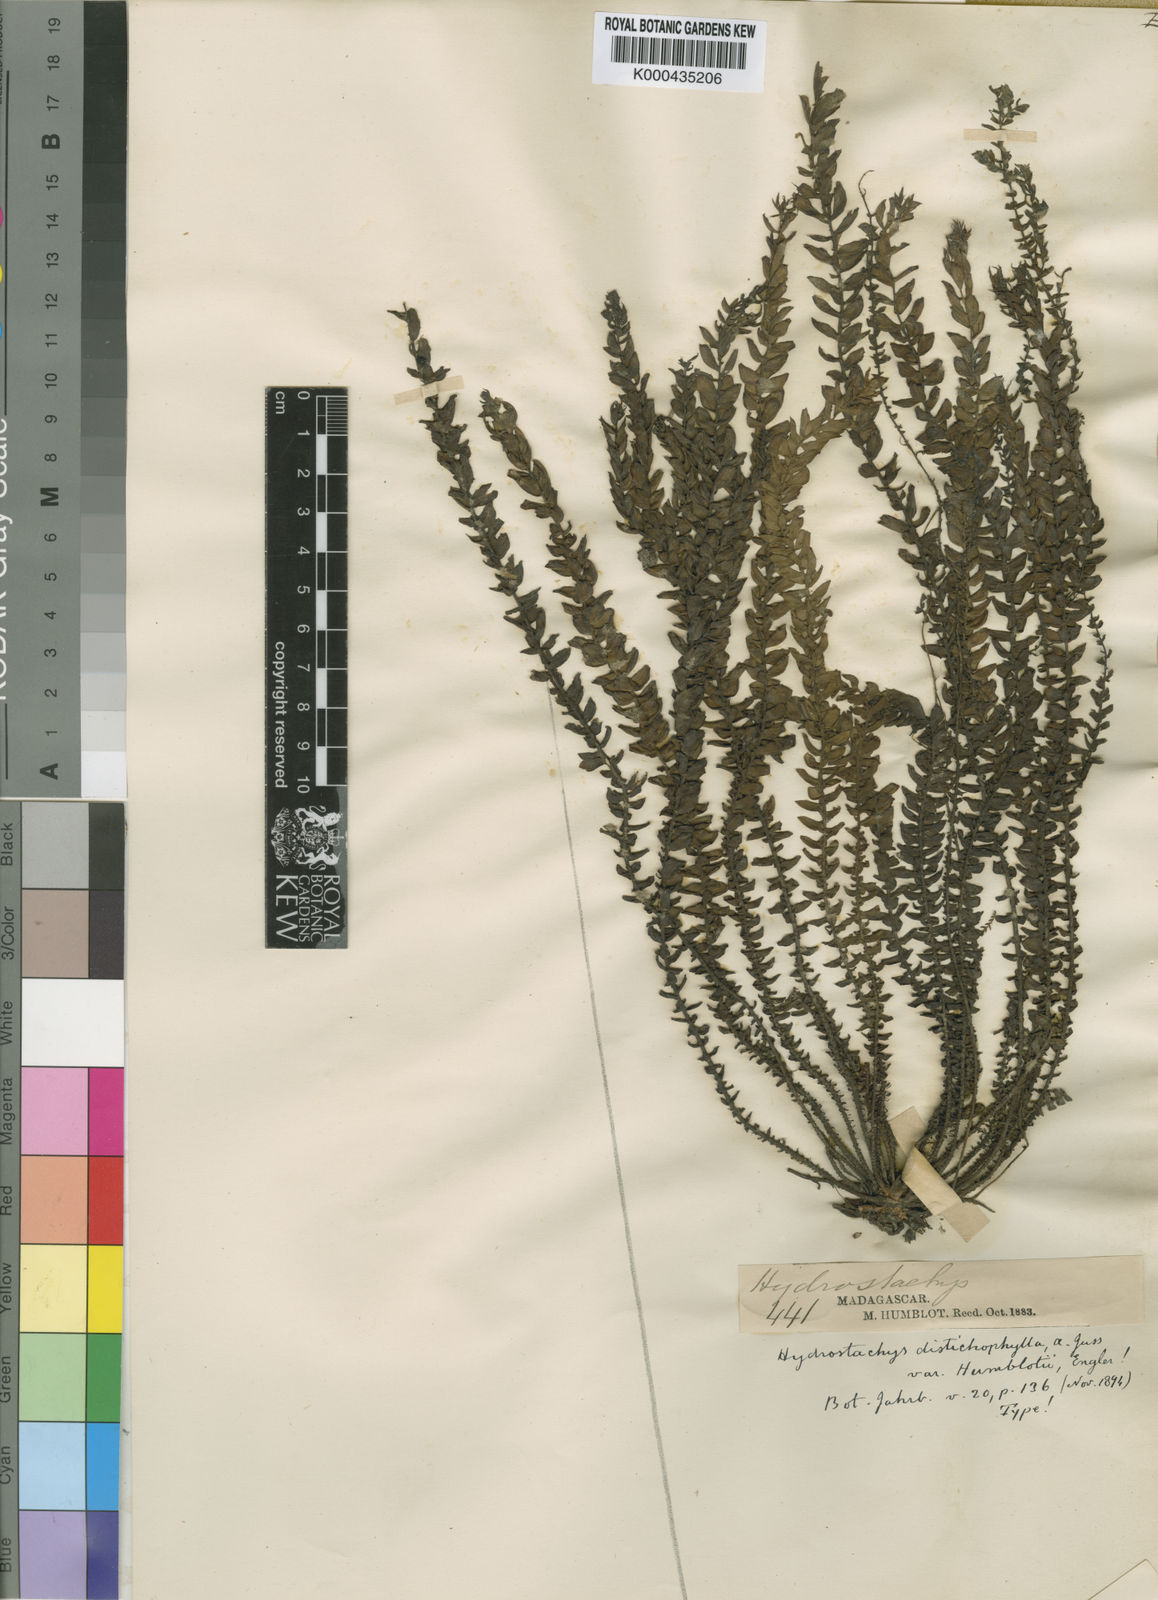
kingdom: Plantae
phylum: Tracheophyta
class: Magnoliopsida
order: Cornales
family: Hydrostachyaceae
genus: Hydrostachys
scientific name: Hydrostachys distichophylla
